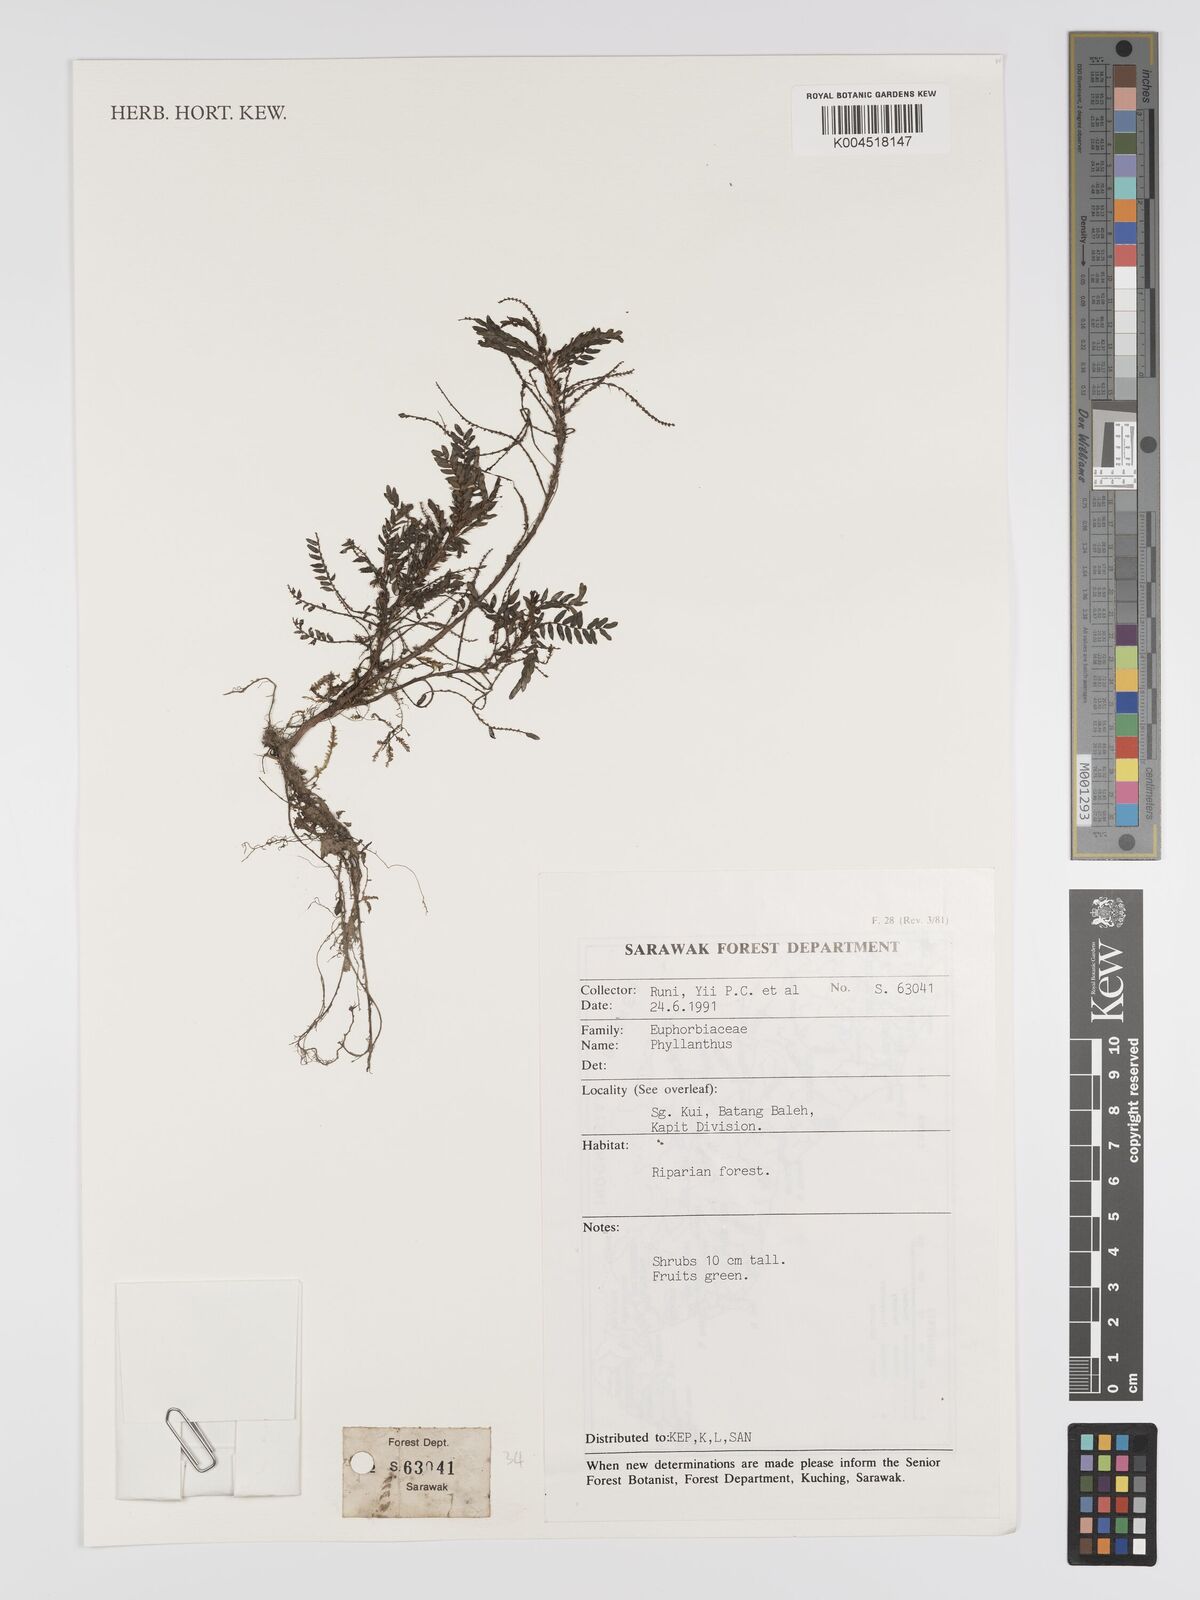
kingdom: Plantae
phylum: Tracheophyta
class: Magnoliopsida
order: Malpighiales
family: Phyllanthaceae
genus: Phyllanthus
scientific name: Phyllanthus
